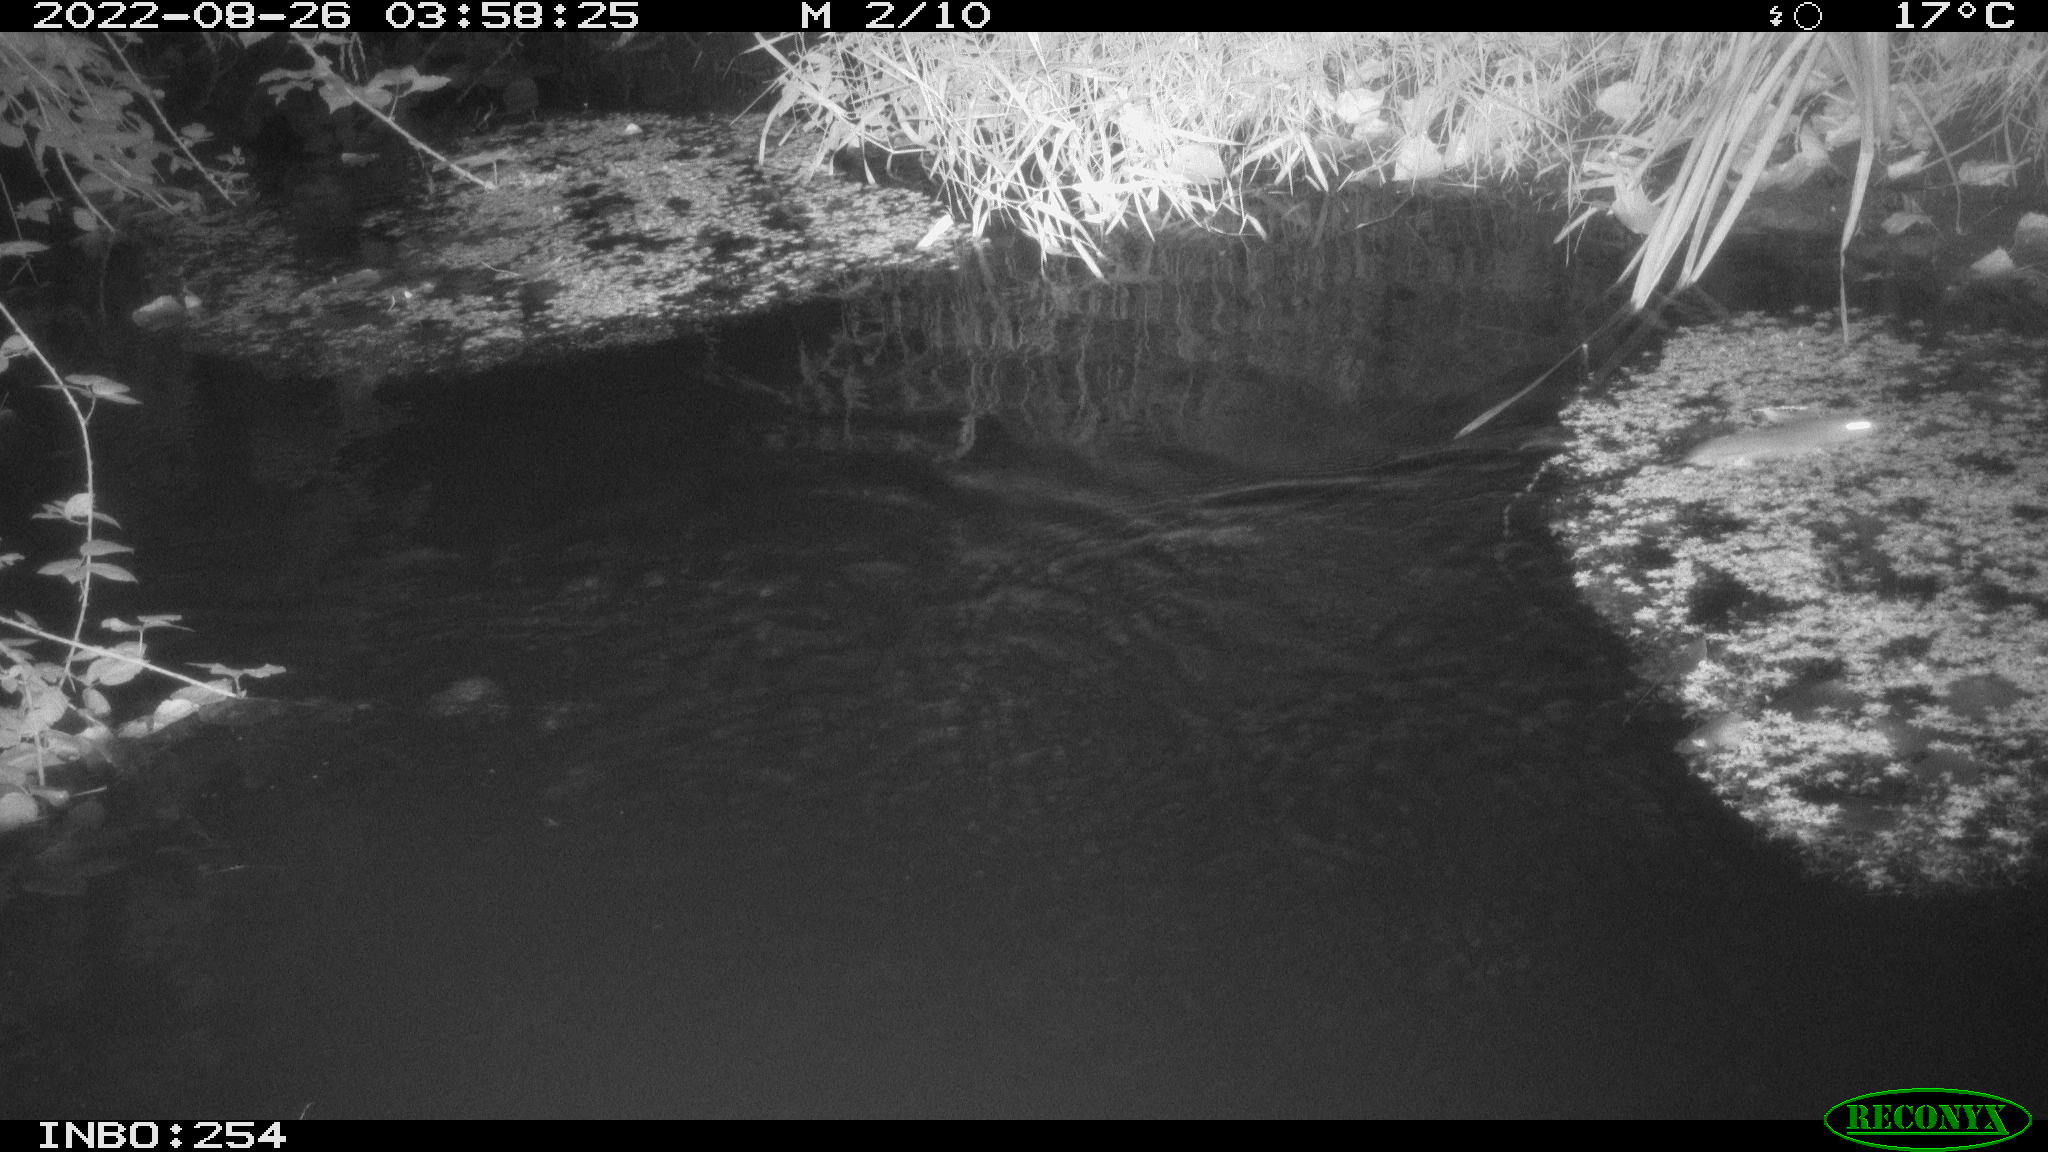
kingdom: Animalia
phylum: Chordata
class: Mammalia
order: Rodentia
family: Muridae
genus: Rattus
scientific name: Rattus norvegicus
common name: Brown rat
